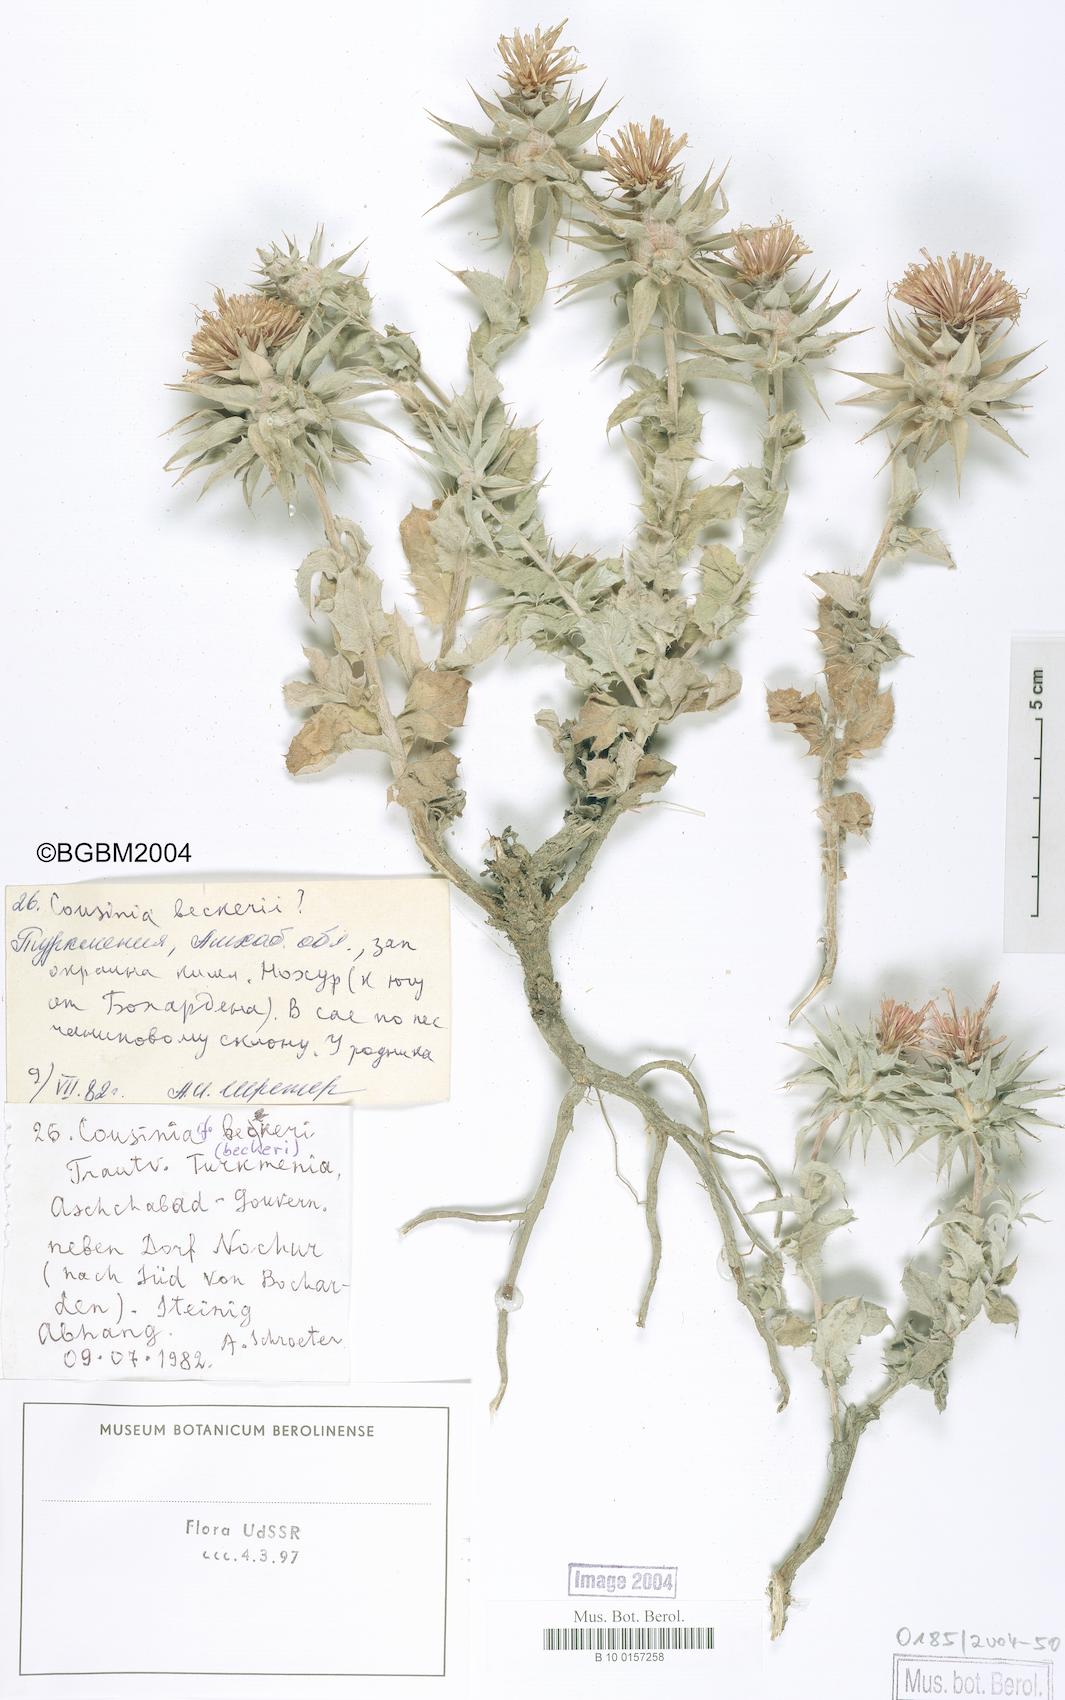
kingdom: Plantae
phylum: Tracheophyta
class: Magnoliopsida
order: Asterales
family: Asteraceae
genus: Cousinia
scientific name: Cousinia beckeri
